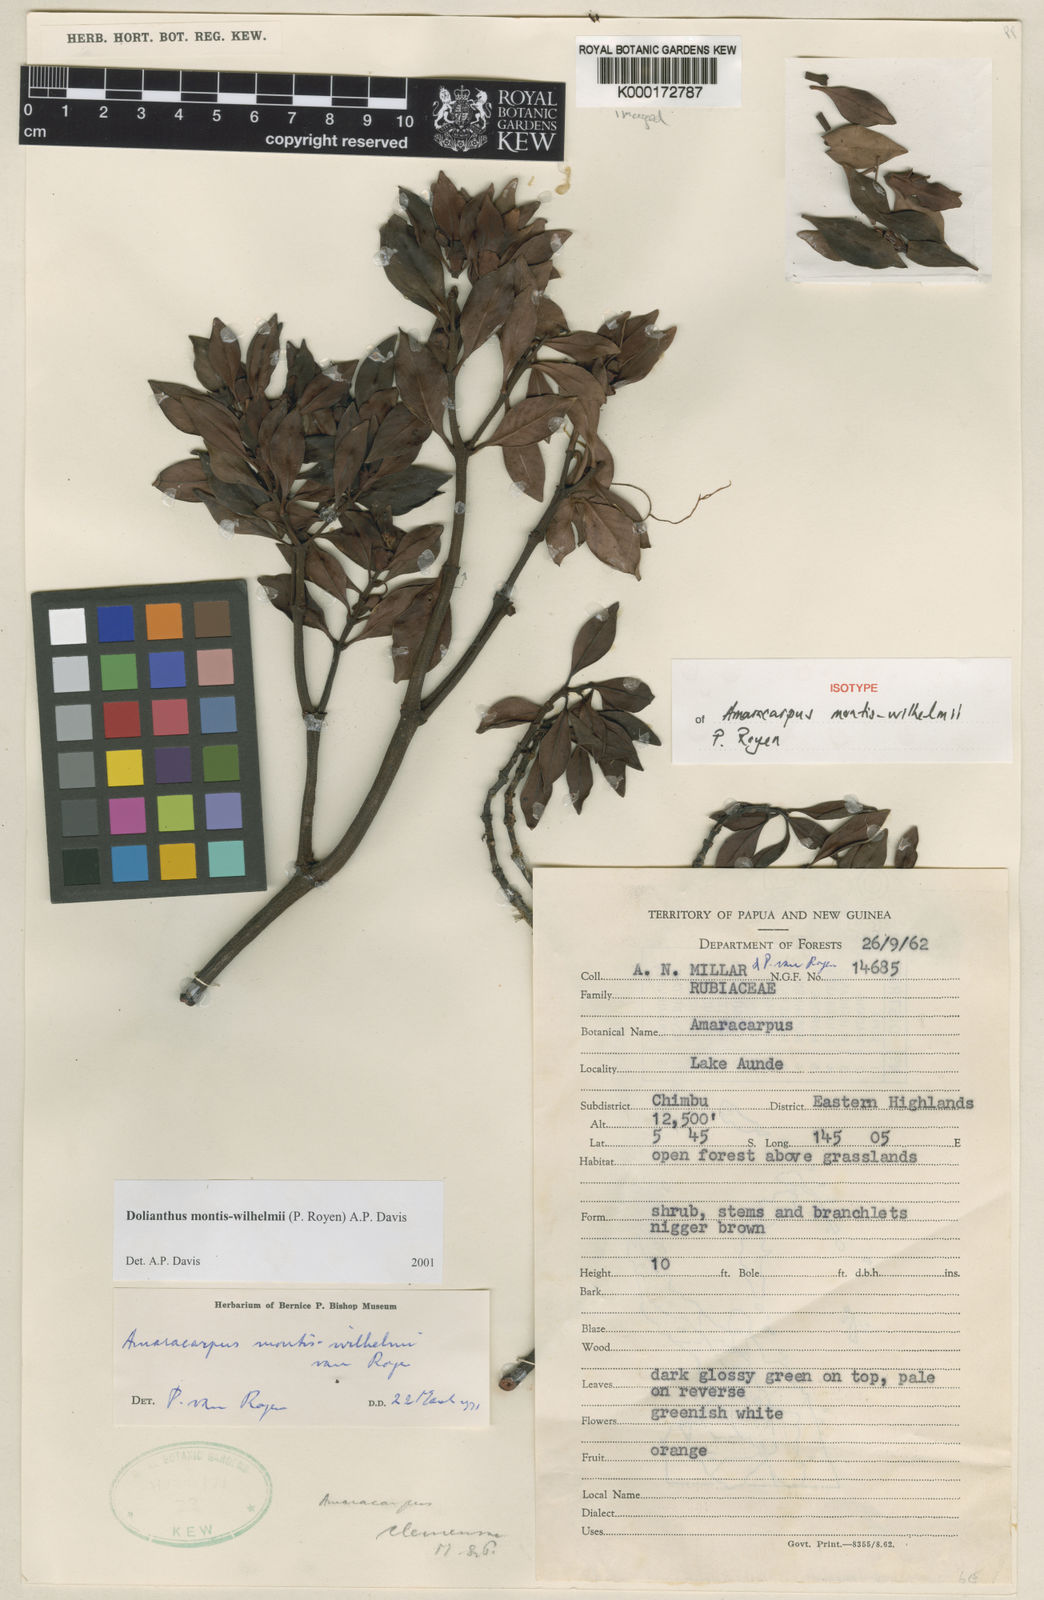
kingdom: Plantae
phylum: Tracheophyta
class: Magnoliopsida
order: Gentianales
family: Rubiaceae
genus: Dolianthus
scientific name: Dolianthus montiswilhelmii
